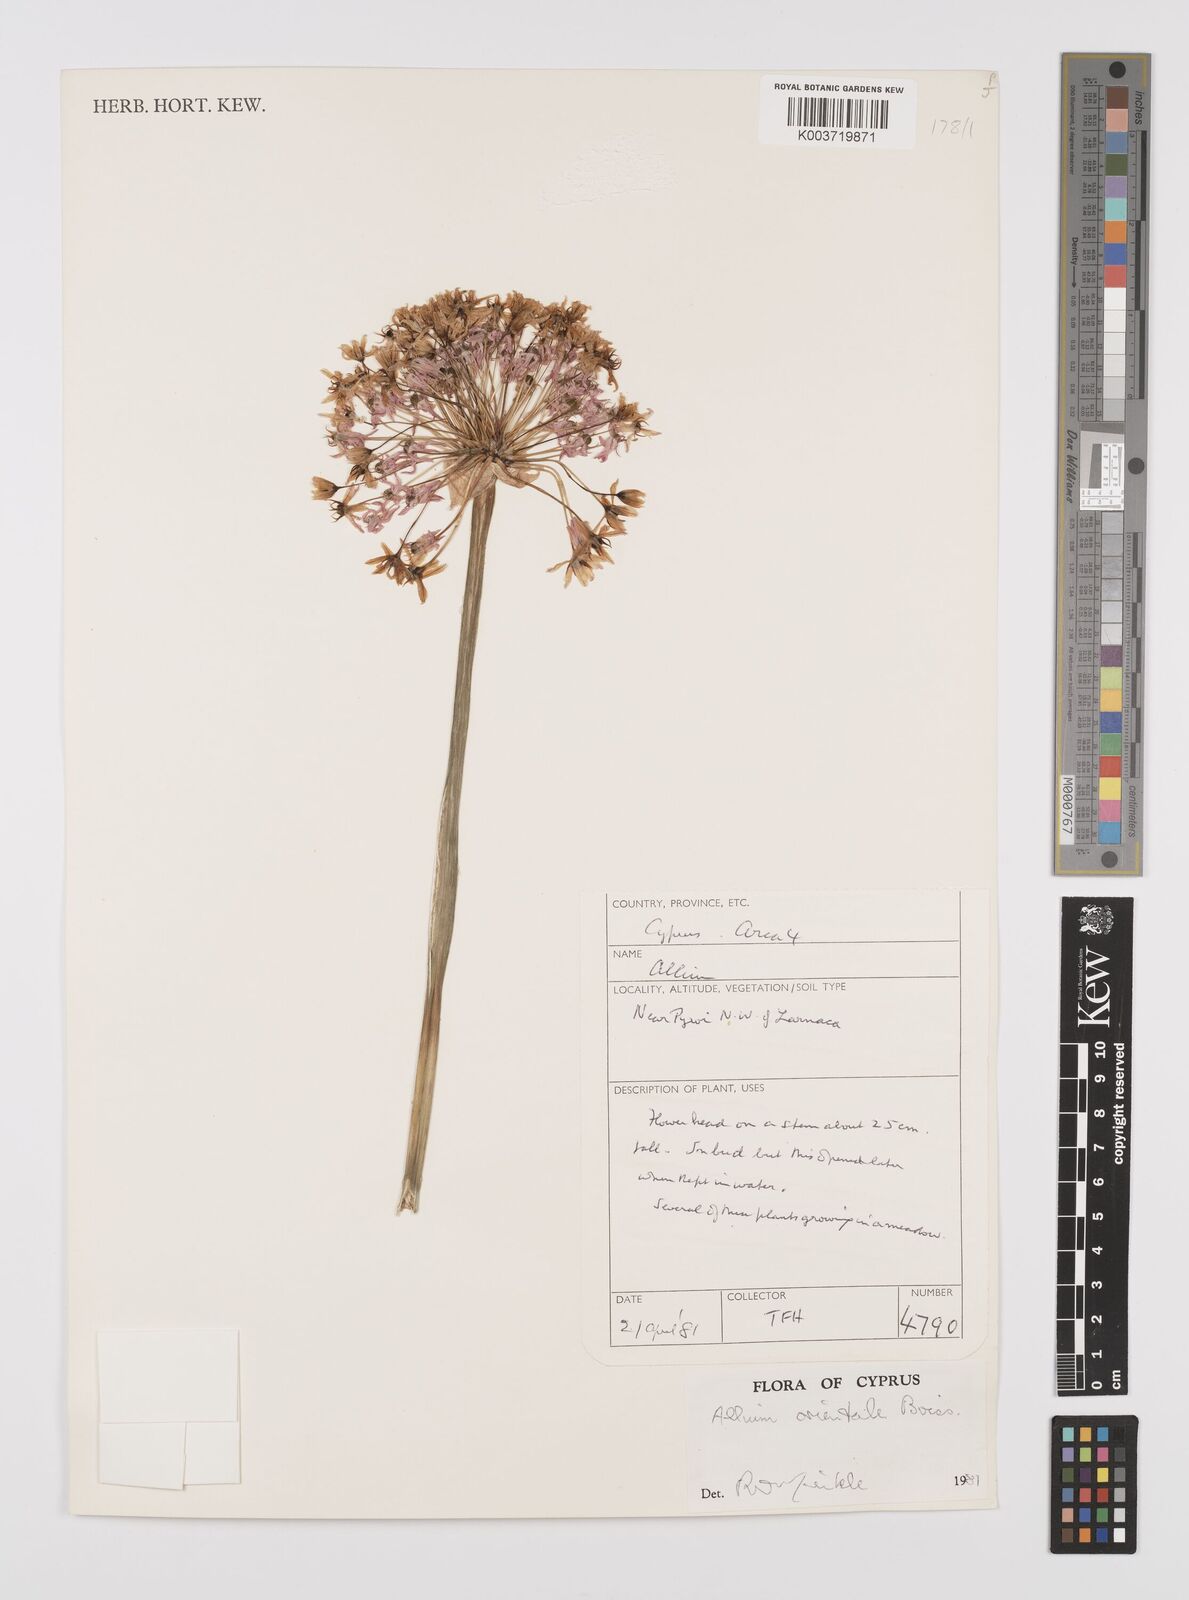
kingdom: Plantae
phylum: Tracheophyta
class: Liliopsida
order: Asparagales
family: Amaryllidaceae
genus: Allium
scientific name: Allium orientale
